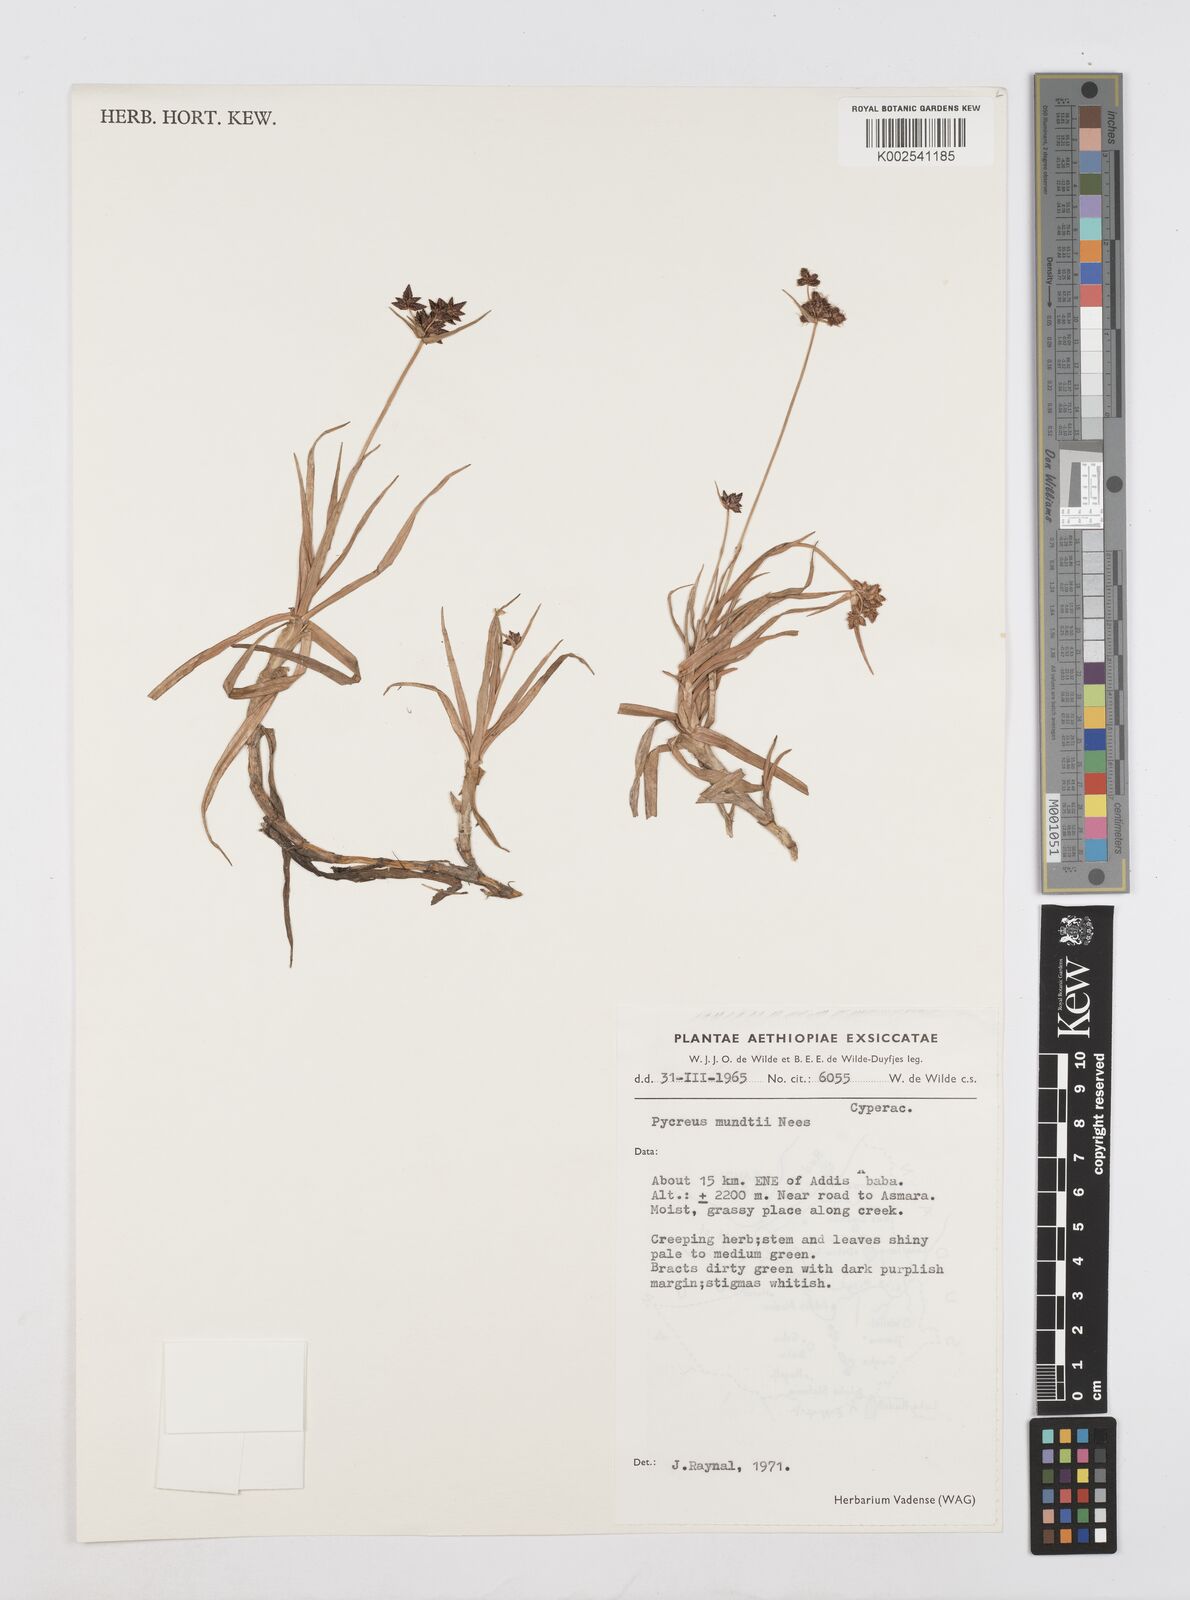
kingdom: Plantae
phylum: Tracheophyta
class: Liliopsida
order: Poales
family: Cyperaceae
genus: Cyperus
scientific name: Cyperus mundii
